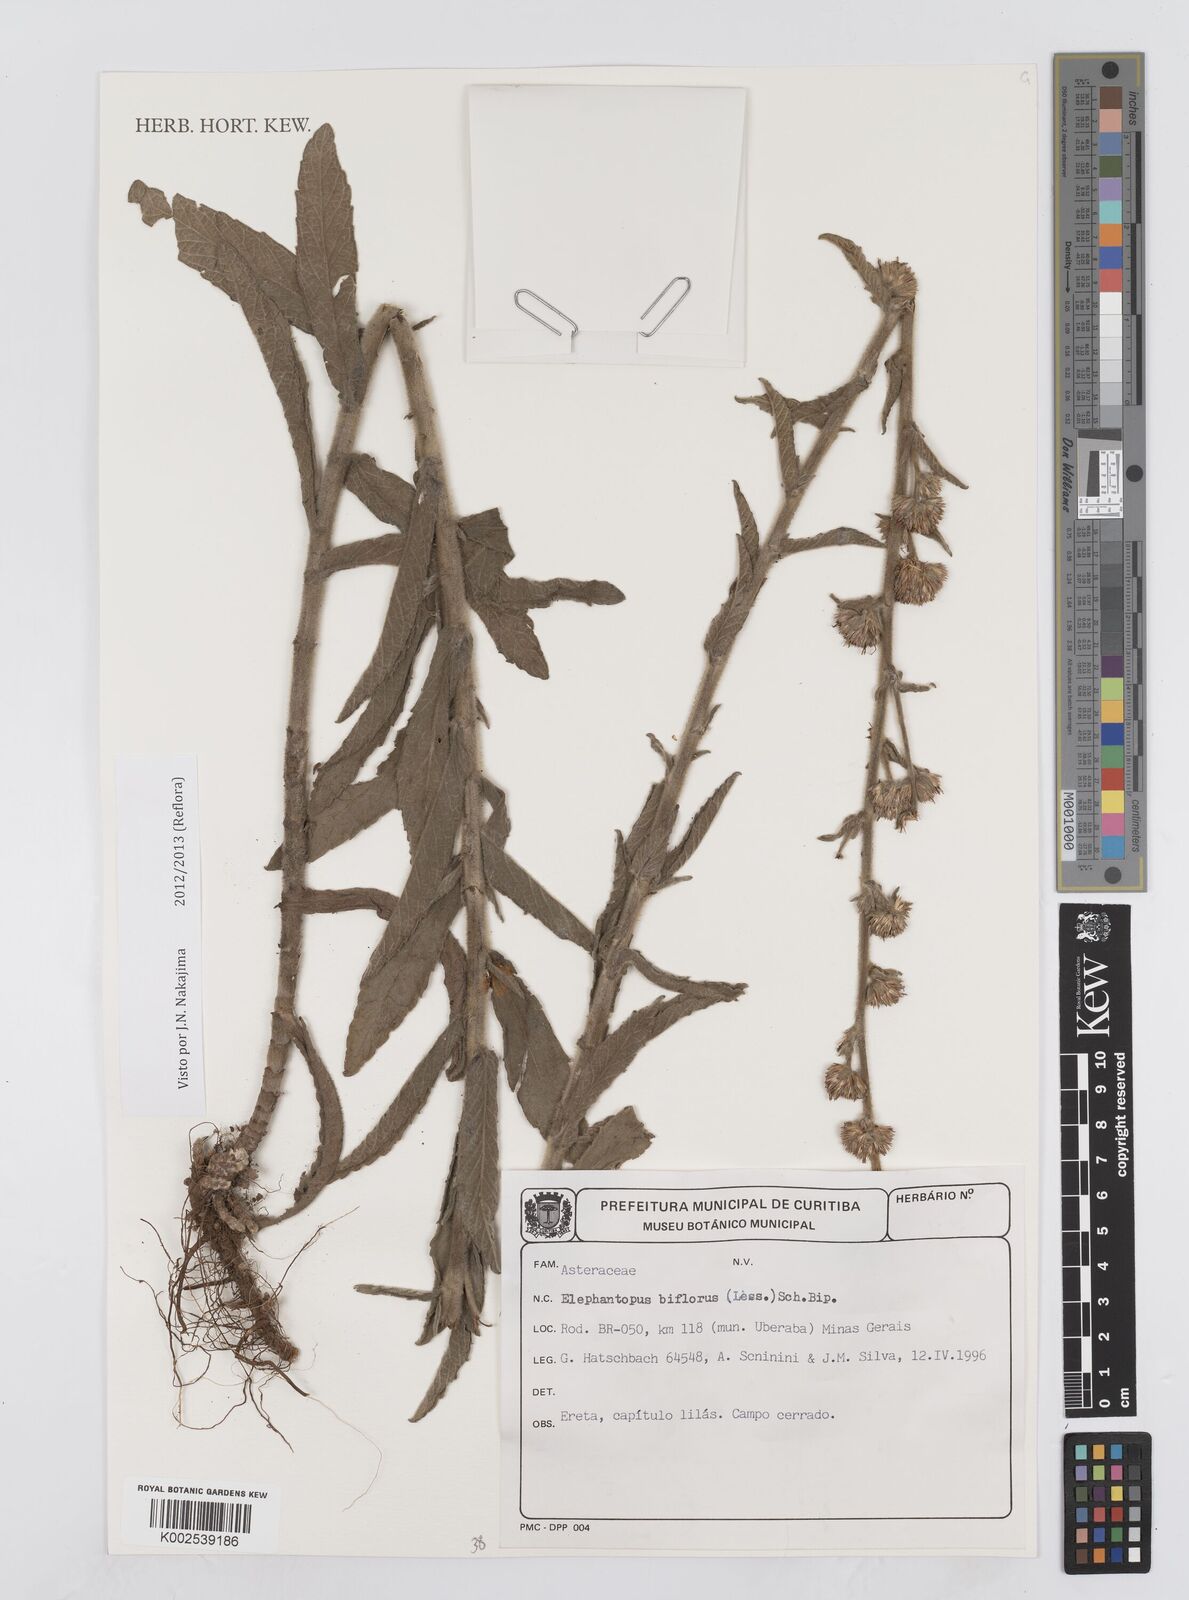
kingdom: Plantae
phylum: Tracheophyta
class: Magnoliopsida
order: Asterales
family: Asteraceae
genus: Elephantopus
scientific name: Elephantopus biflorus
